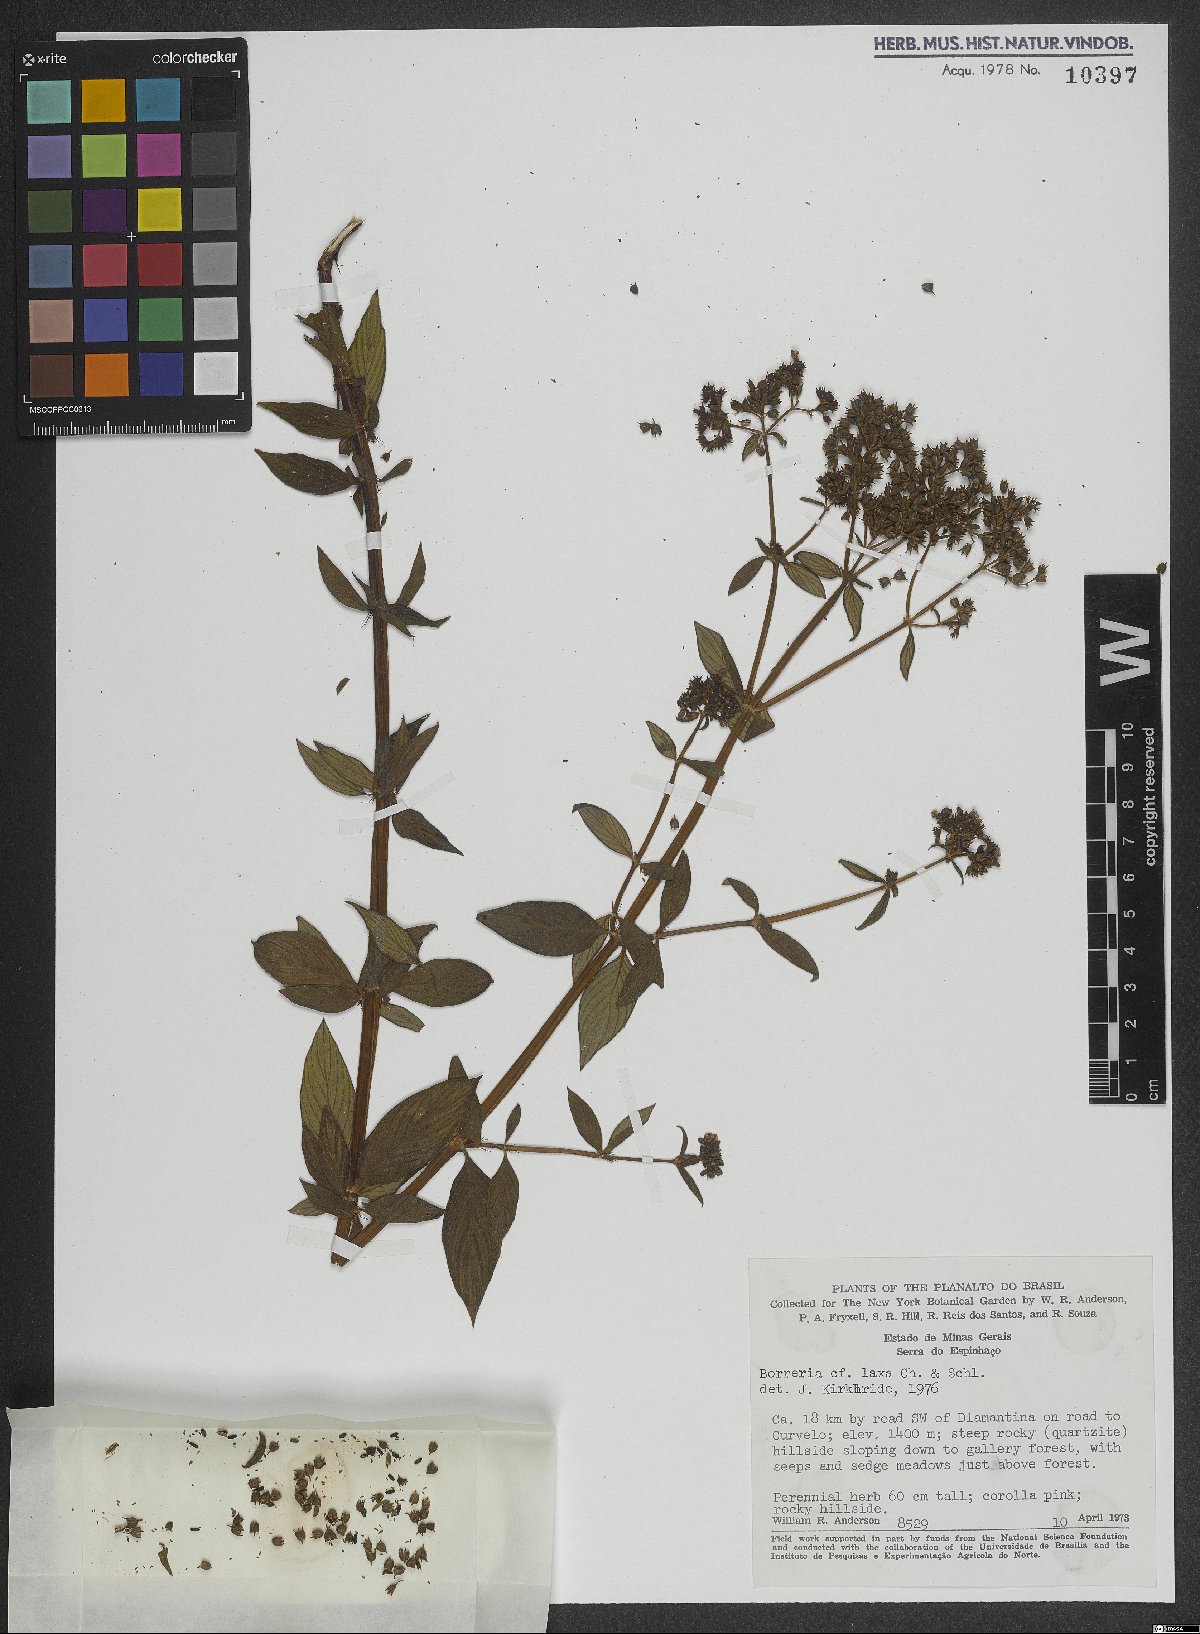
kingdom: Plantae
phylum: Tracheophyta
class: Magnoliopsida
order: Gentianales
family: Rubiaceae
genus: Galianthe
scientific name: Galianthe laxa
